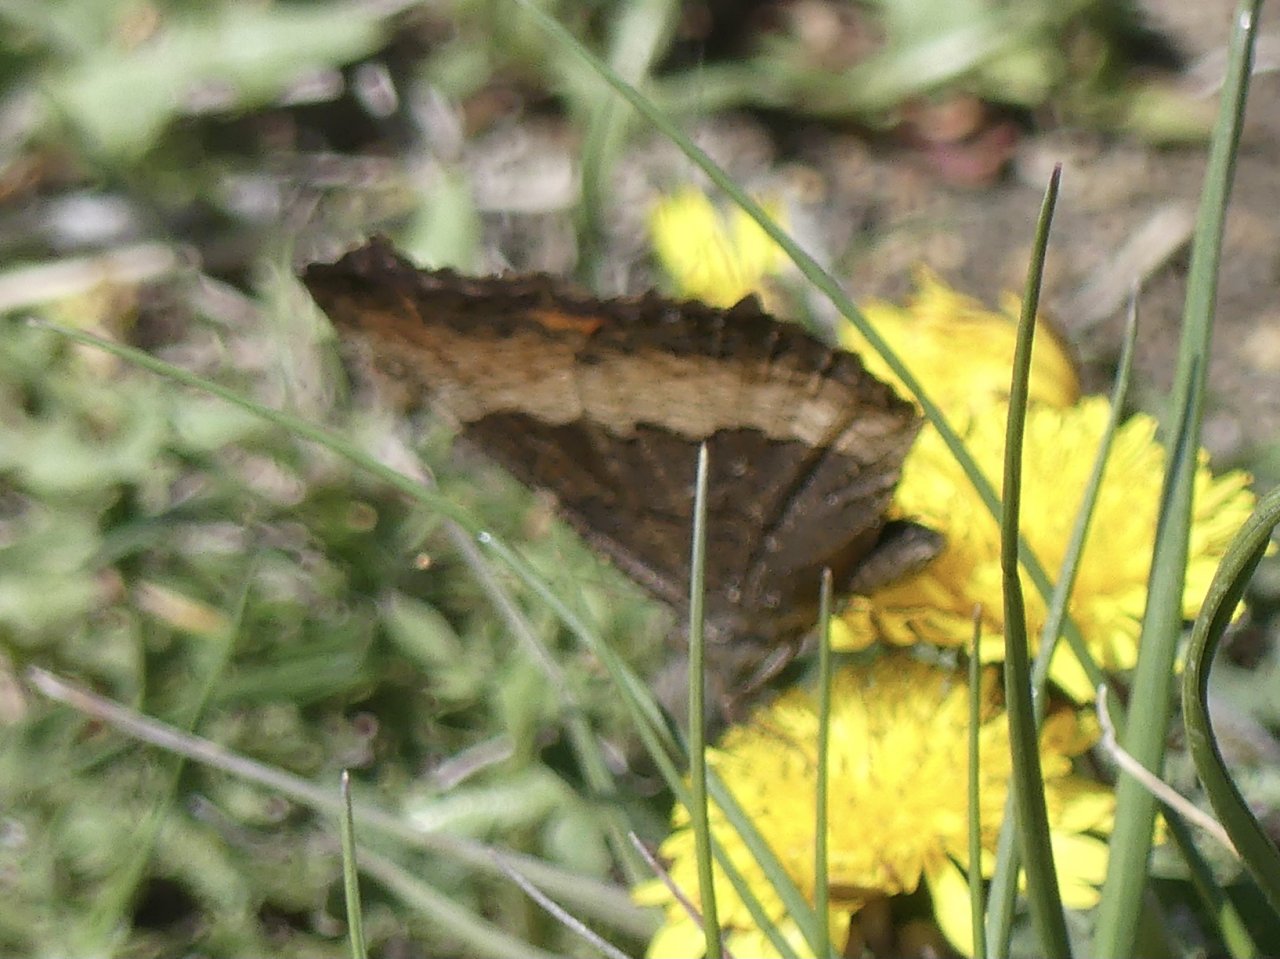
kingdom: Animalia
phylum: Arthropoda
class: Insecta
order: Lepidoptera
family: Nymphalidae
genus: Aglais
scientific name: Aglais milberti
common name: Milbert's Tortoiseshell
